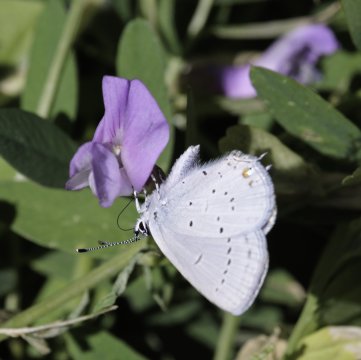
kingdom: Animalia
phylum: Arthropoda
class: Insecta
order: Lepidoptera
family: Lycaenidae
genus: Elkalyce
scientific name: Elkalyce amyntula
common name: Western Tailed-Blue
